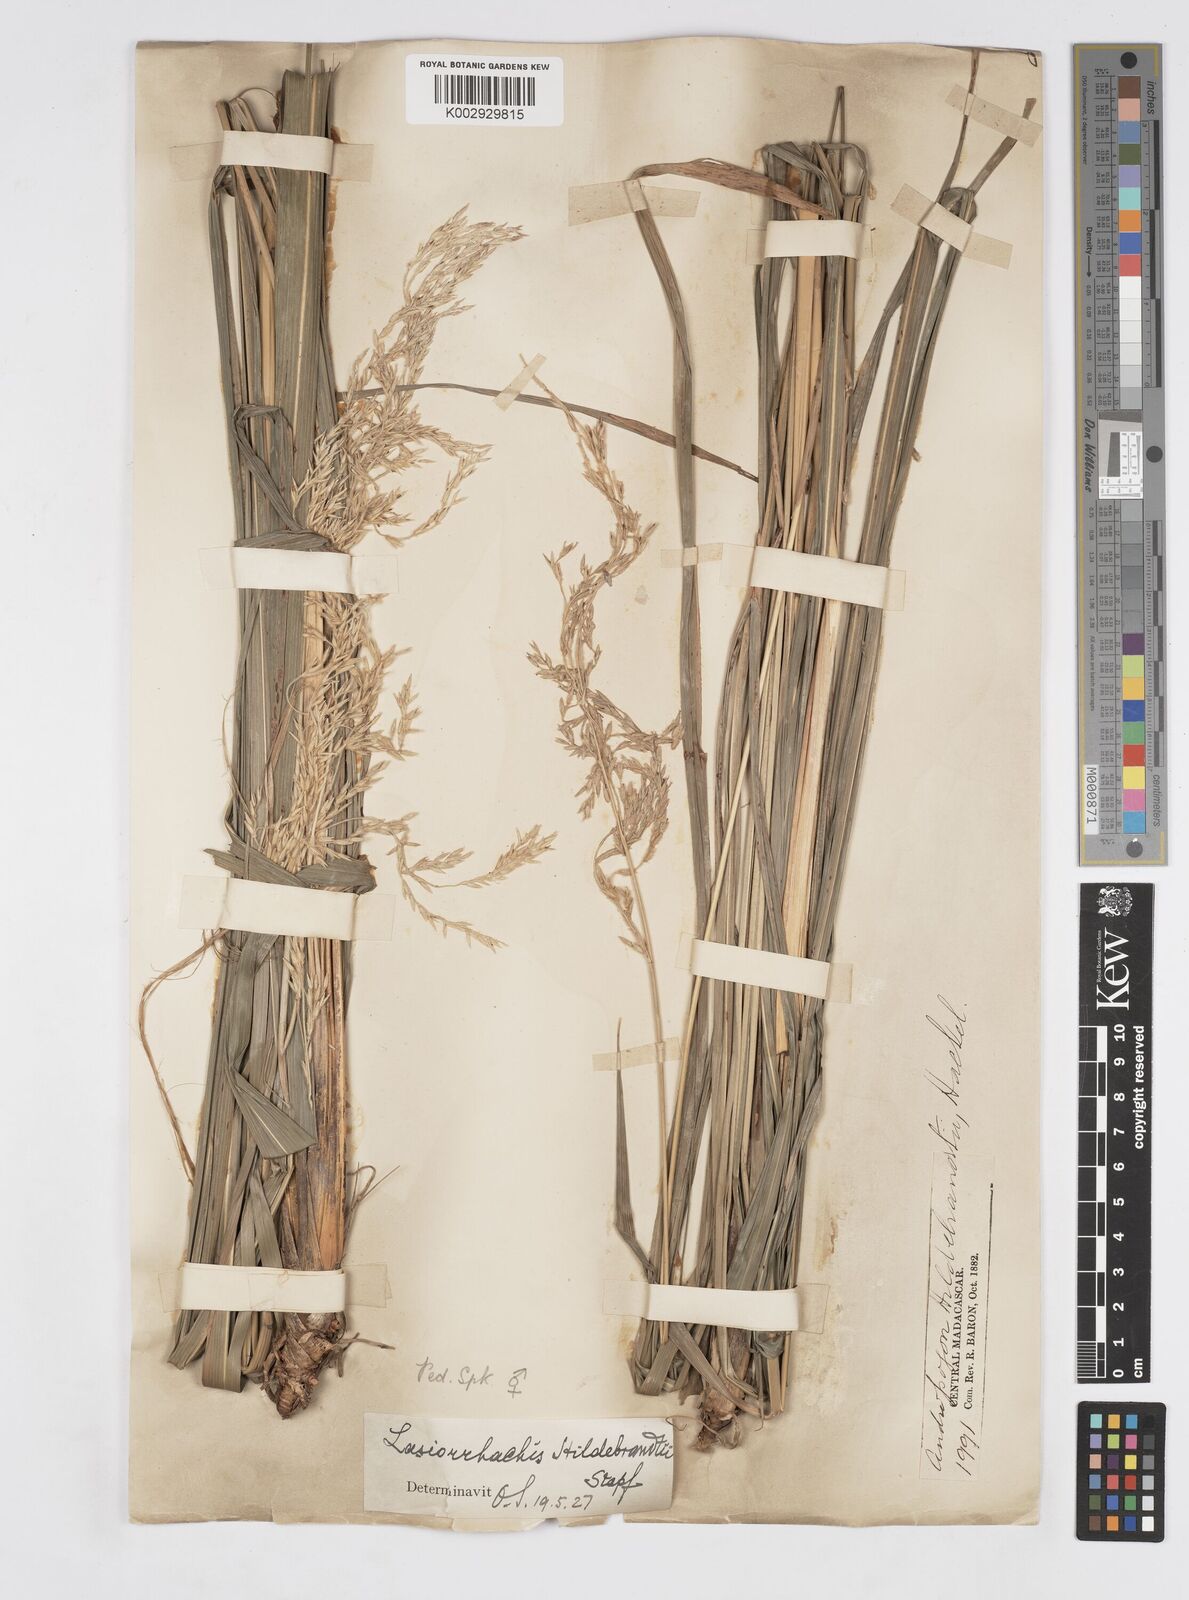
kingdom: Plantae
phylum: Tracheophyta
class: Liliopsida
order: Poales
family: Poaceae
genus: Lasiorhachis
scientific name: Lasiorhachis hildebrandtii
